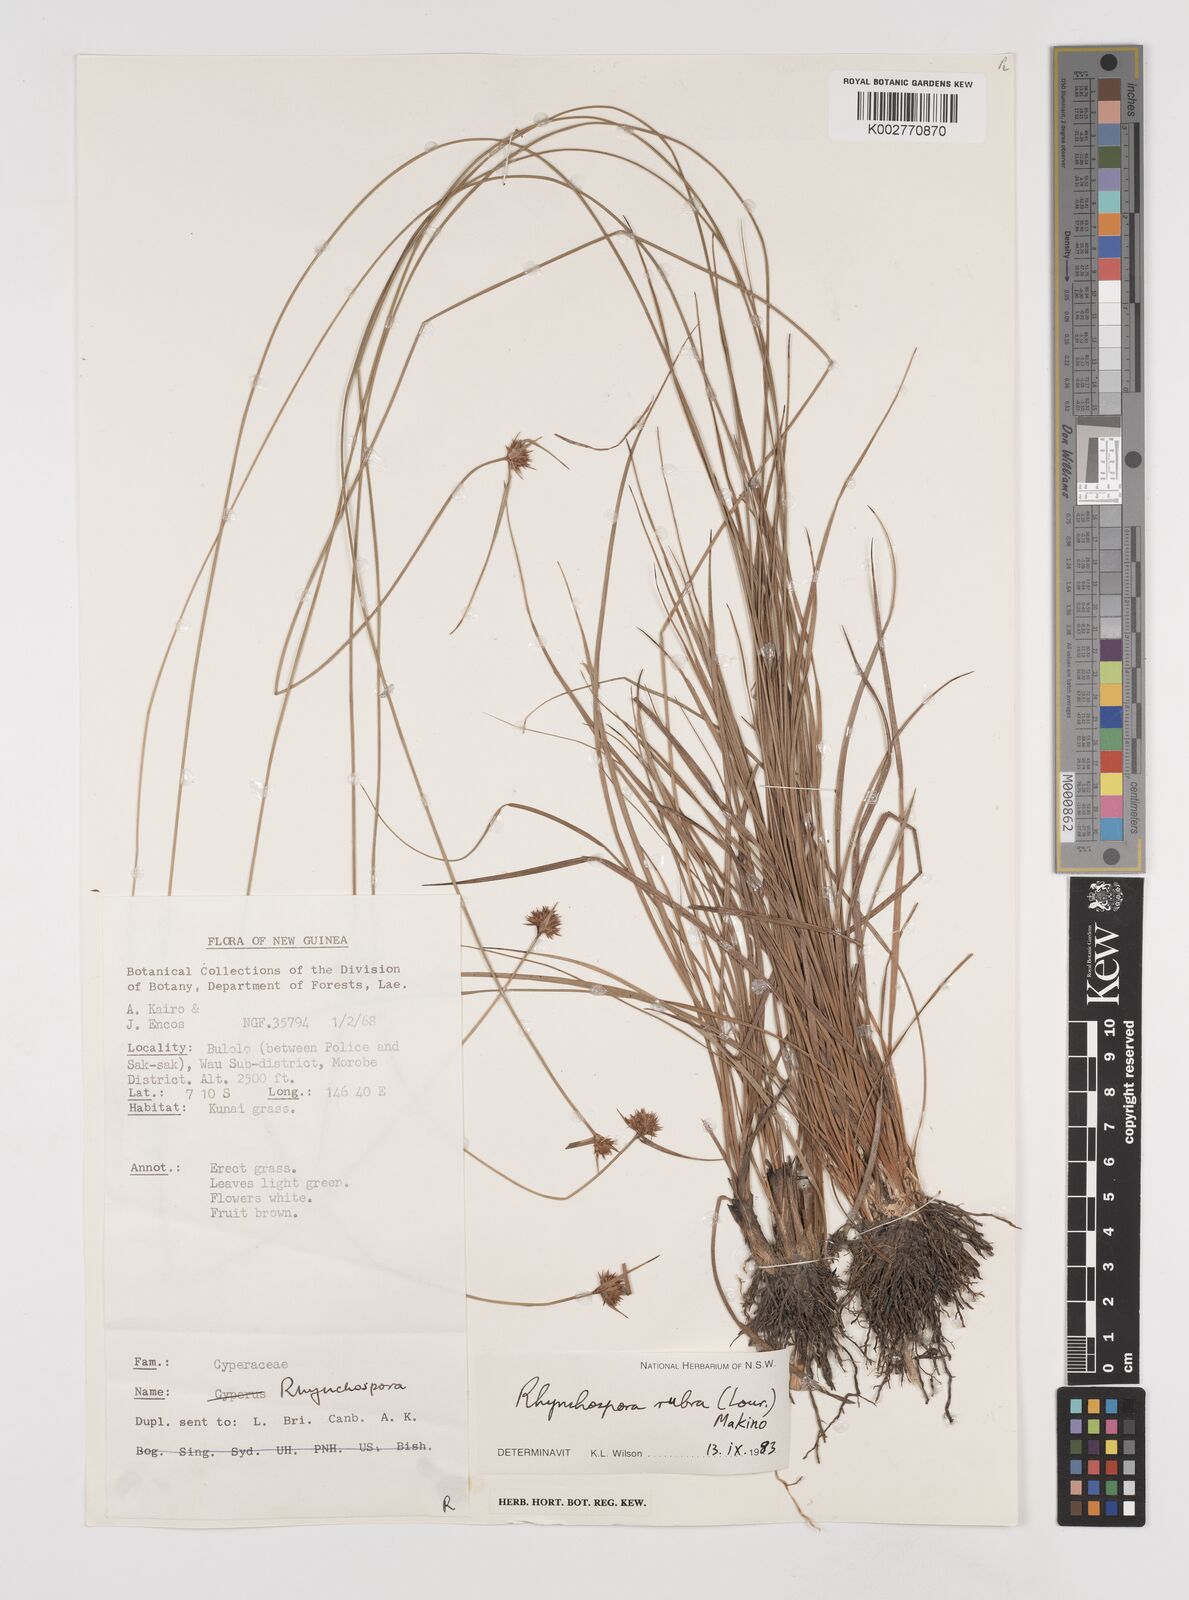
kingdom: Plantae
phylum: Tracheophyta
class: Liliopsida
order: Poales
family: Cyperaceae
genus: Rhynchospora
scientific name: Rhynchospora rubra
